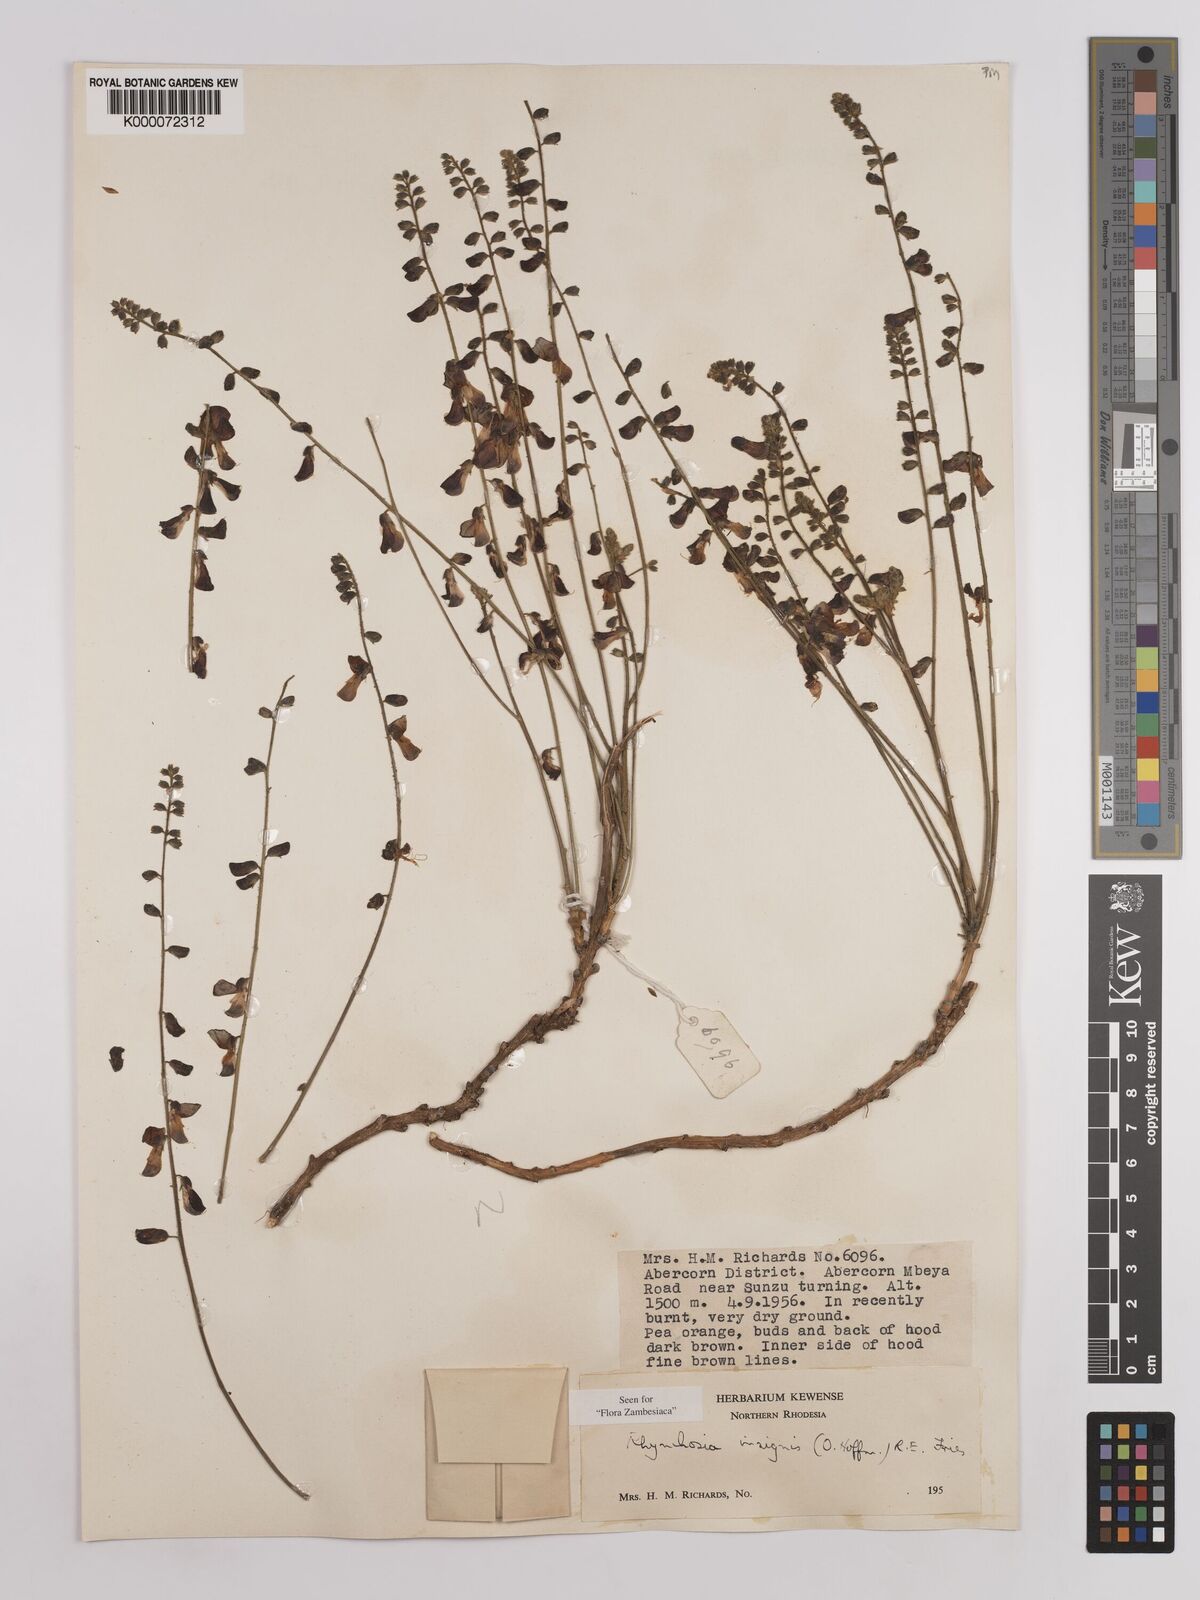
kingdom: Plantae
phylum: Tracheophyta
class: Magnoliopsida
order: Fabales
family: Fabaceae
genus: Rhynchosia
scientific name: Rhynchosia insignis
